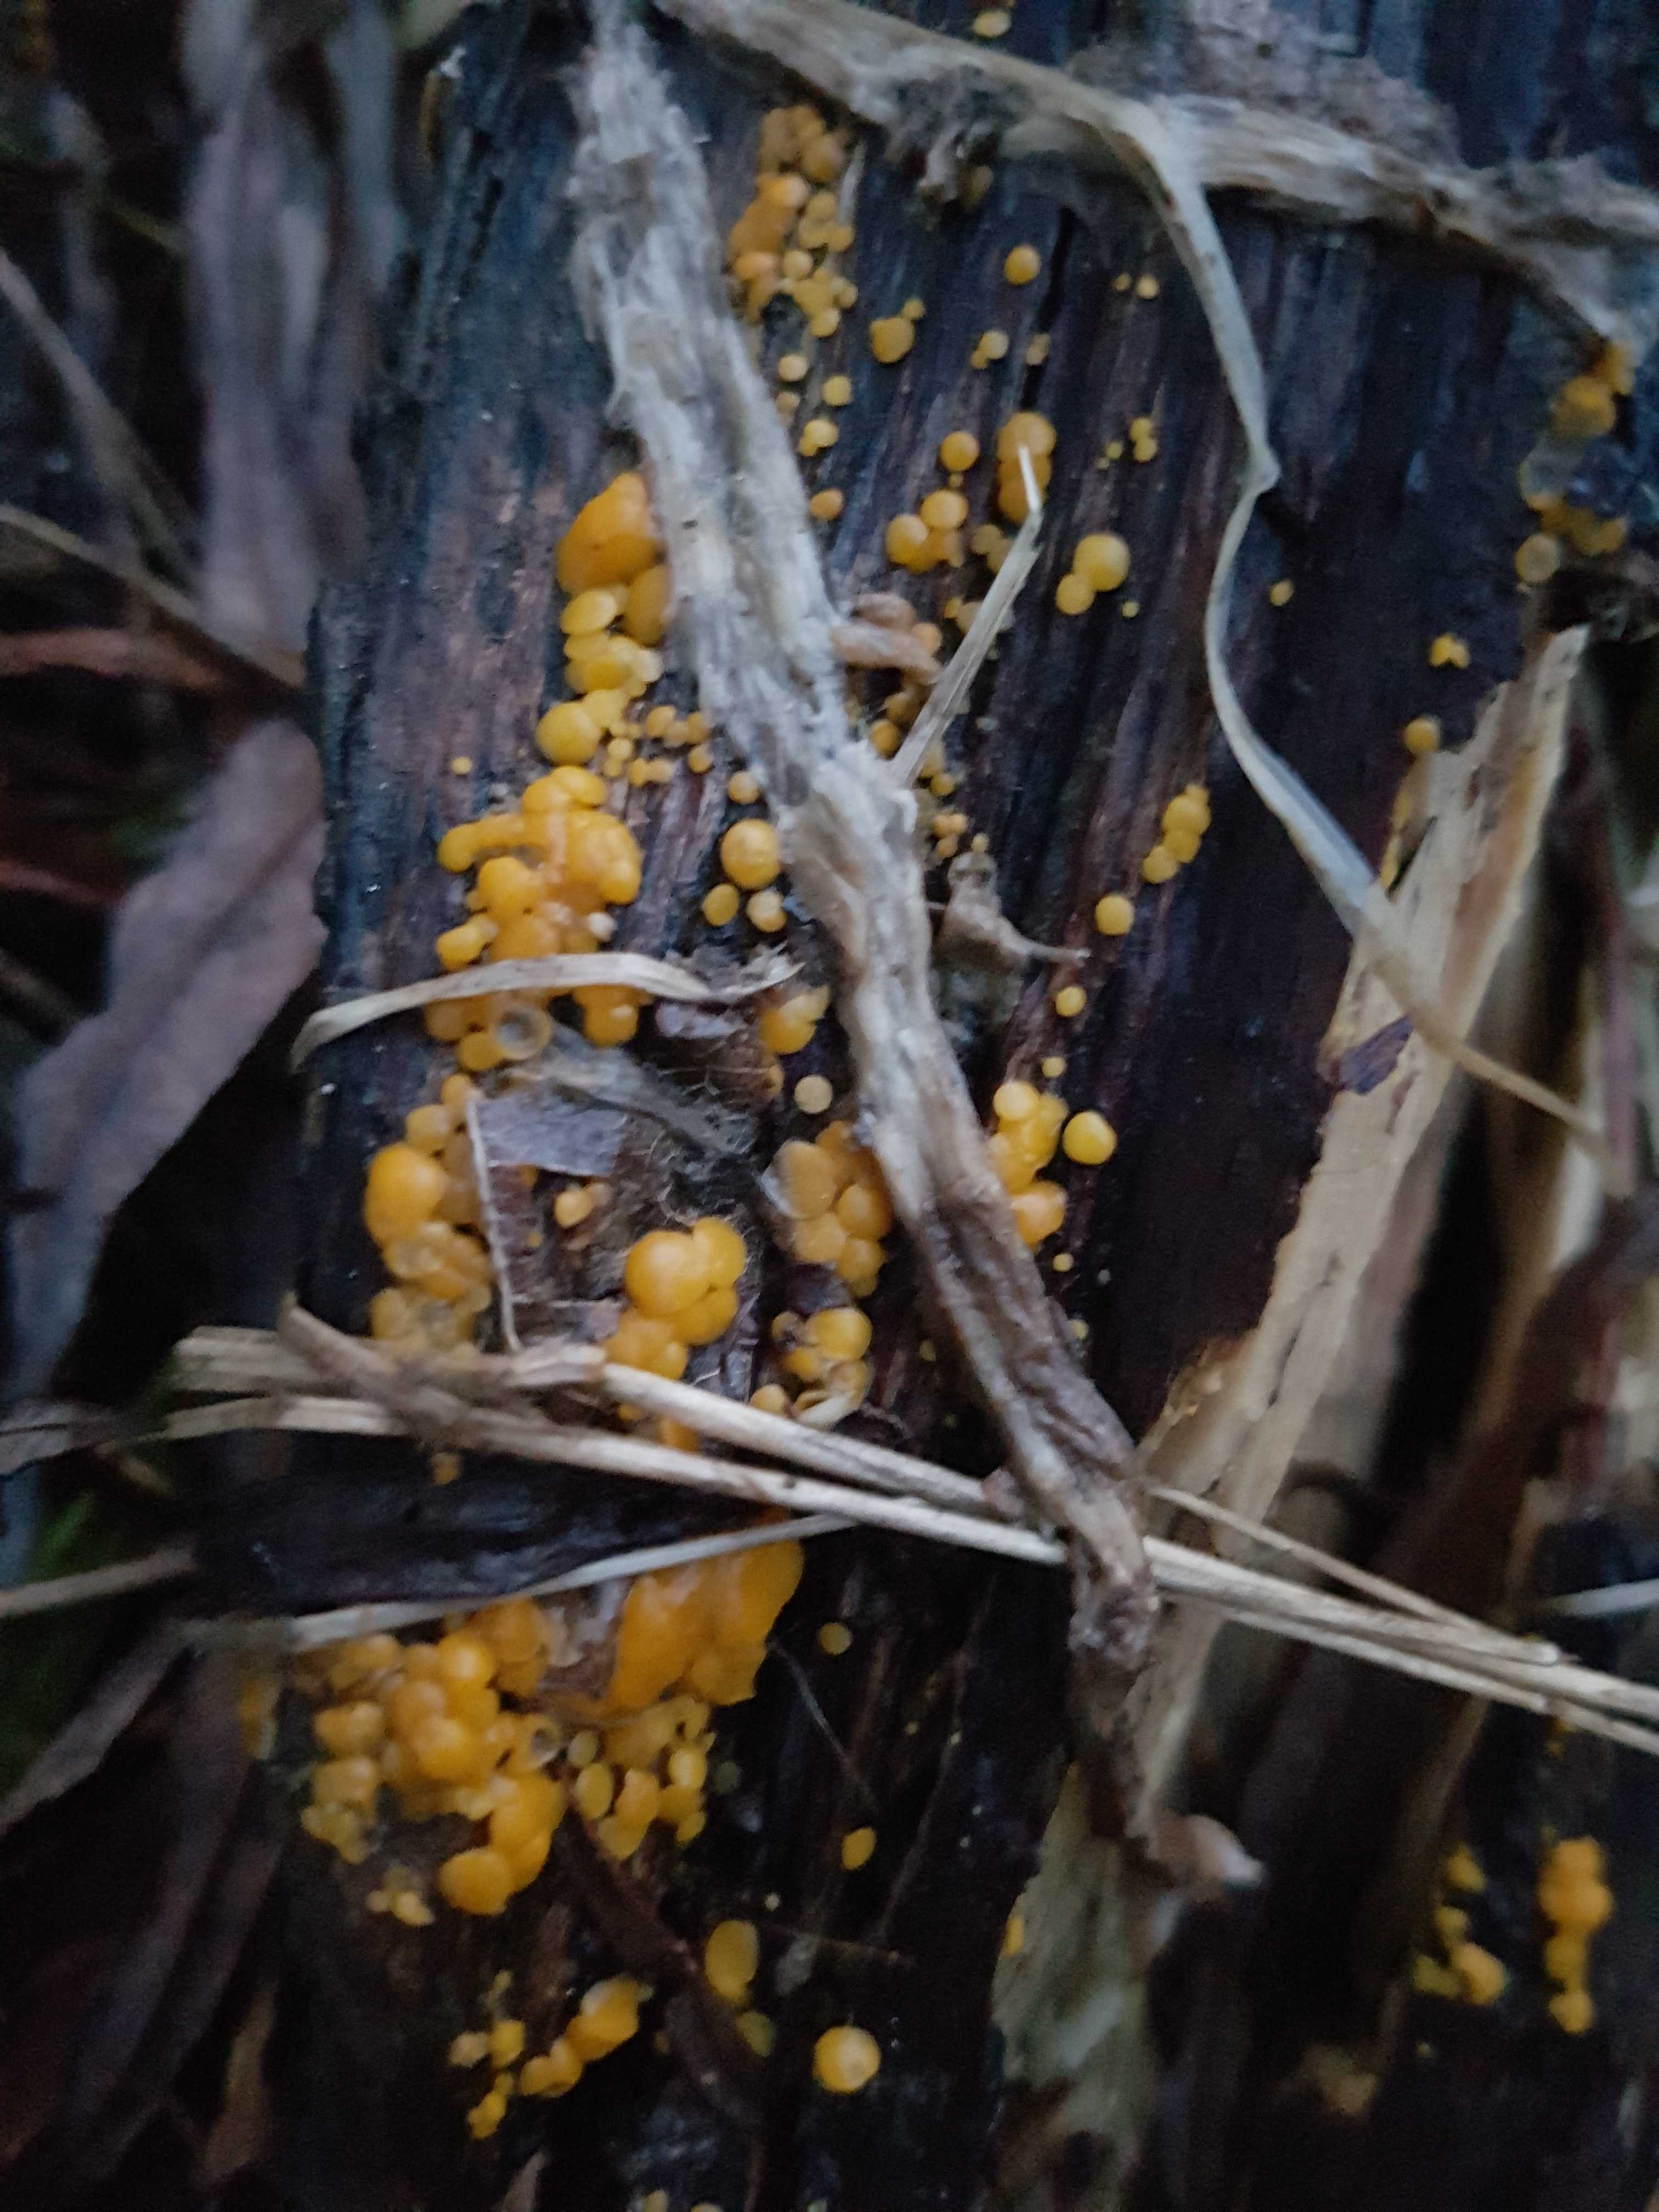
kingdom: Fungi
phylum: Ascomycota
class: Leotiomycetes
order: Helotiales
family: Pezizellaceae
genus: Calycina
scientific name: Calycina citrina
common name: almindelig gulskive
